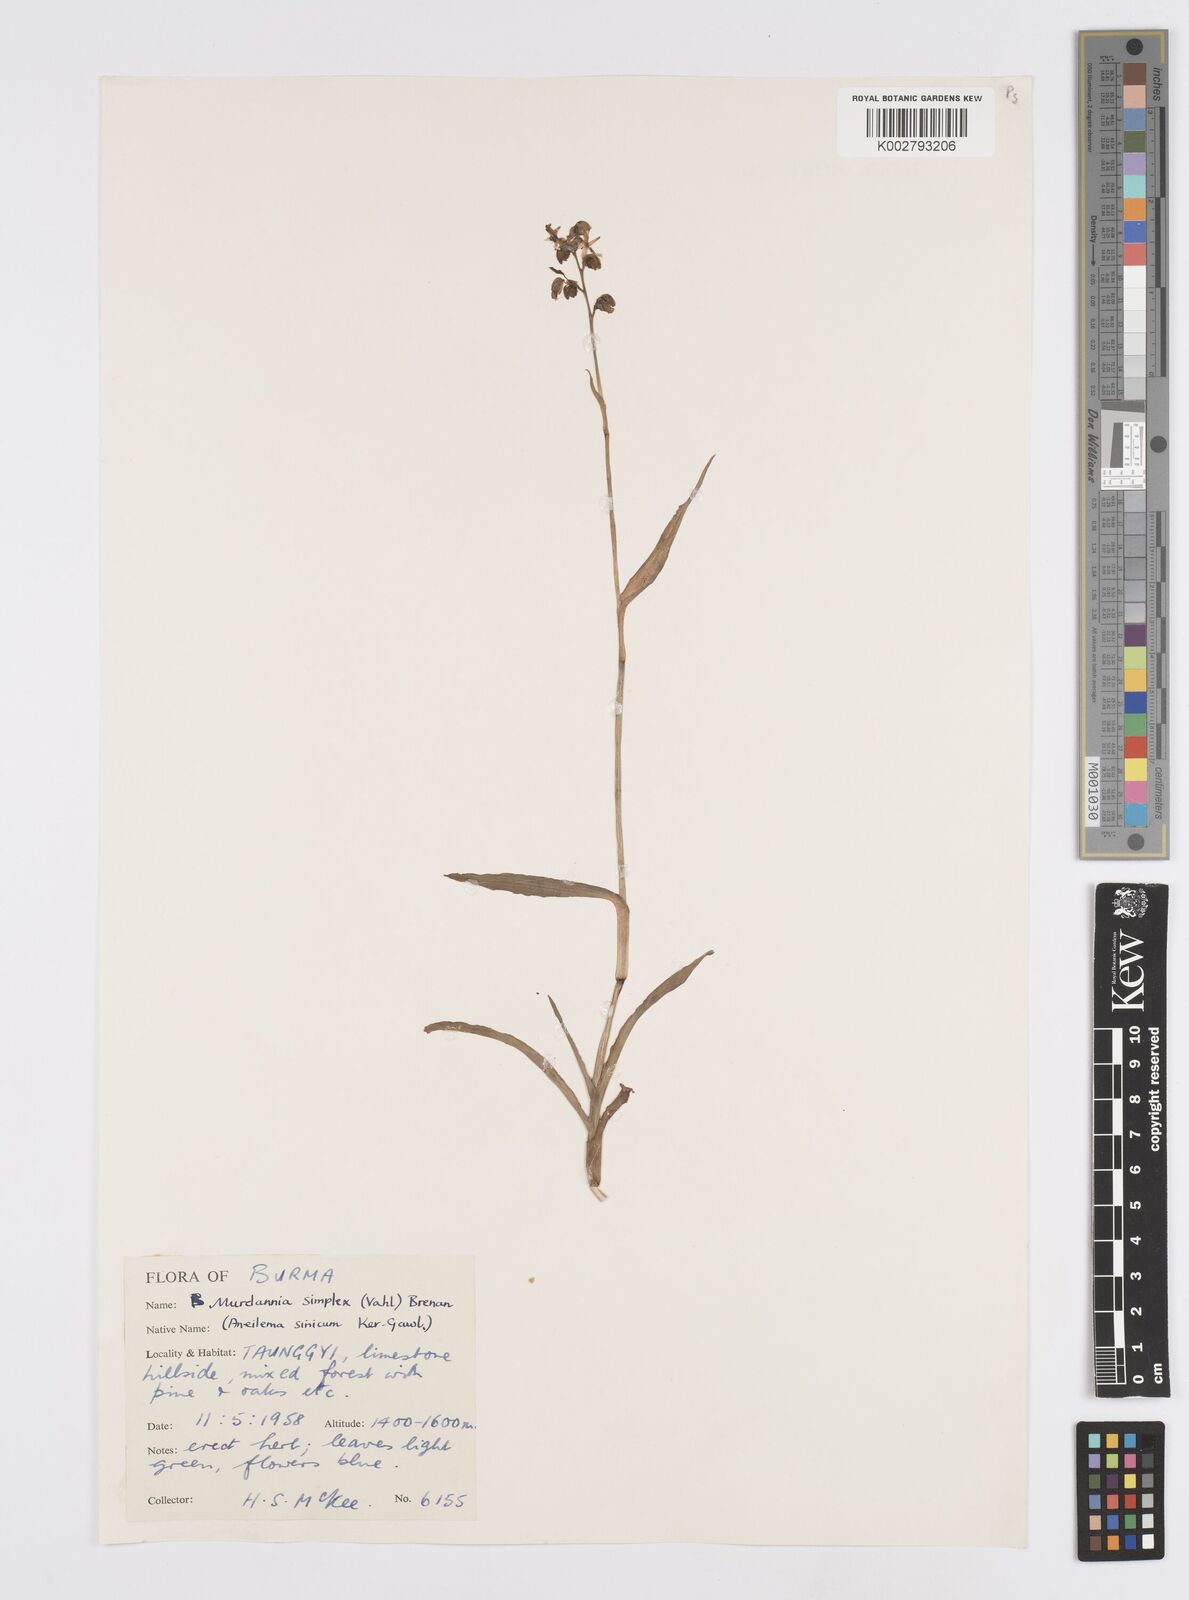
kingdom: Plantae
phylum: Tracheophyta
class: Liliopsida
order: Commelinales
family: Commelinaceae
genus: Murdannia
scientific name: Murdannia simplex
